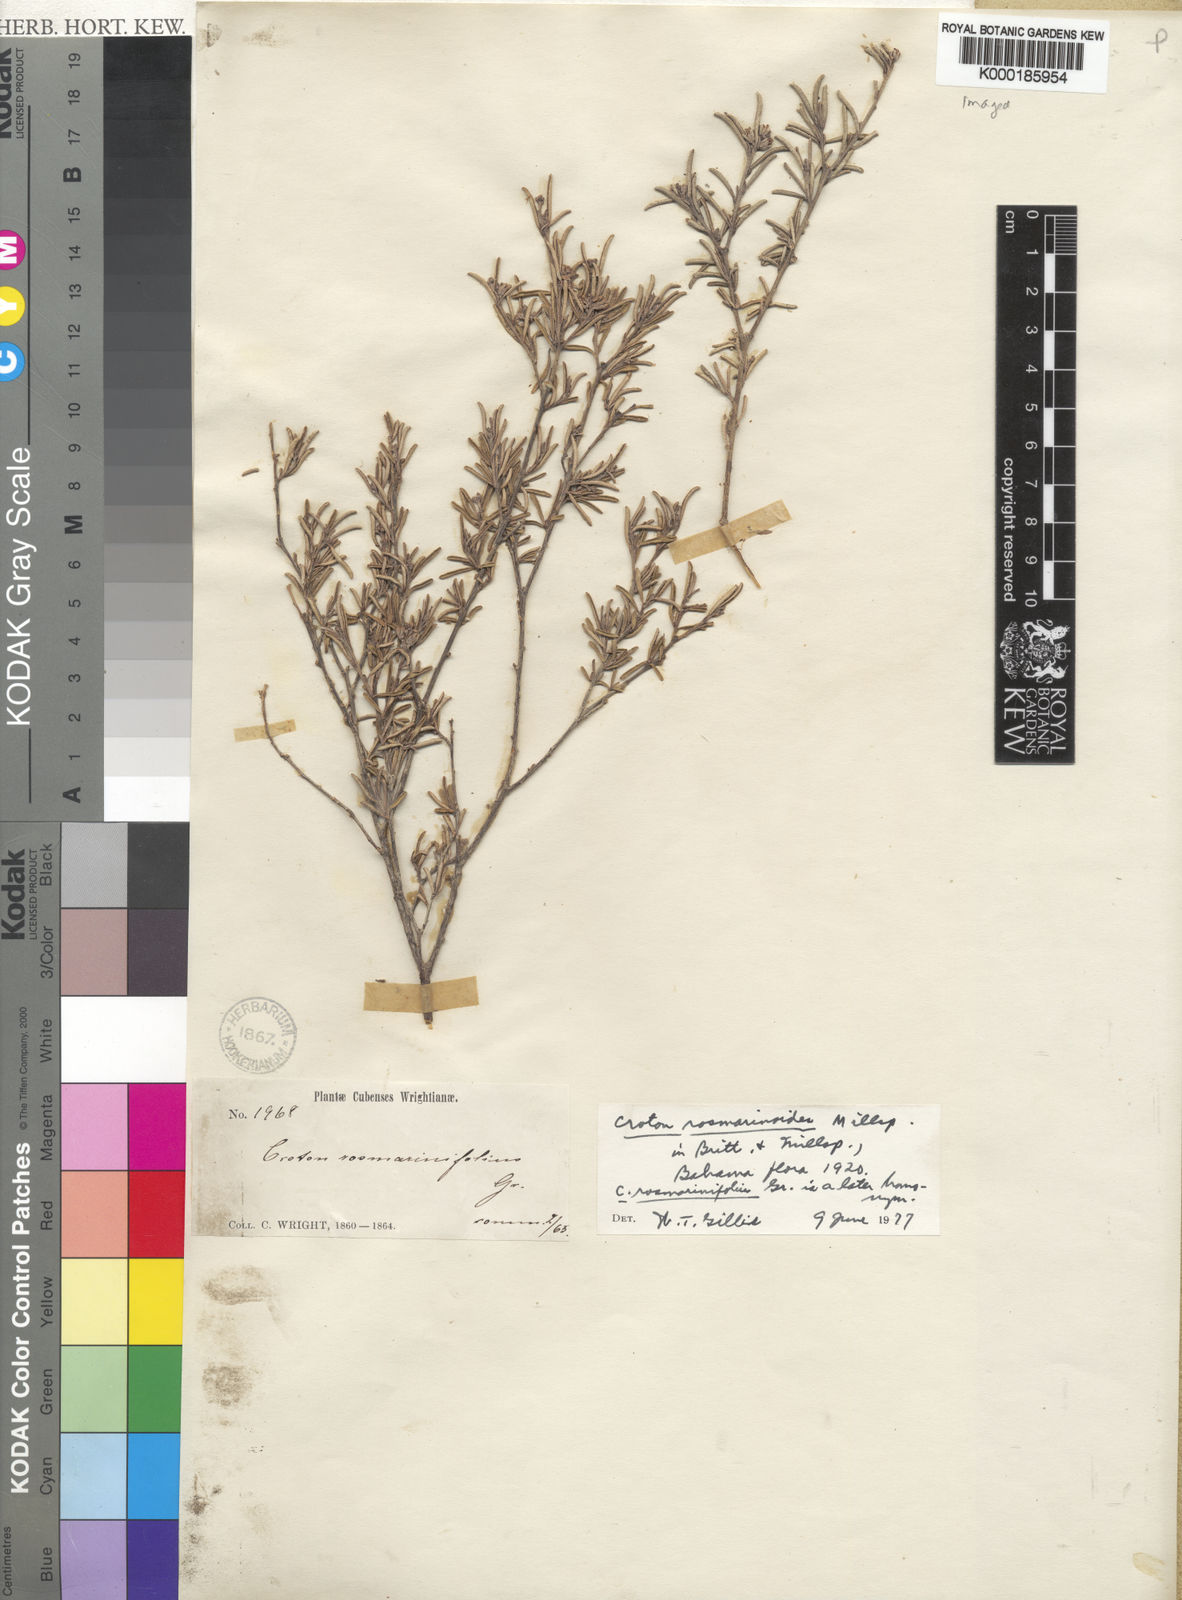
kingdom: Plantae
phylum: Tracheophyta
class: Magnoliopsida
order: Malpighiales
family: Euphorbiaceae
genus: Croton
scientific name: Croton rosmarinoides
